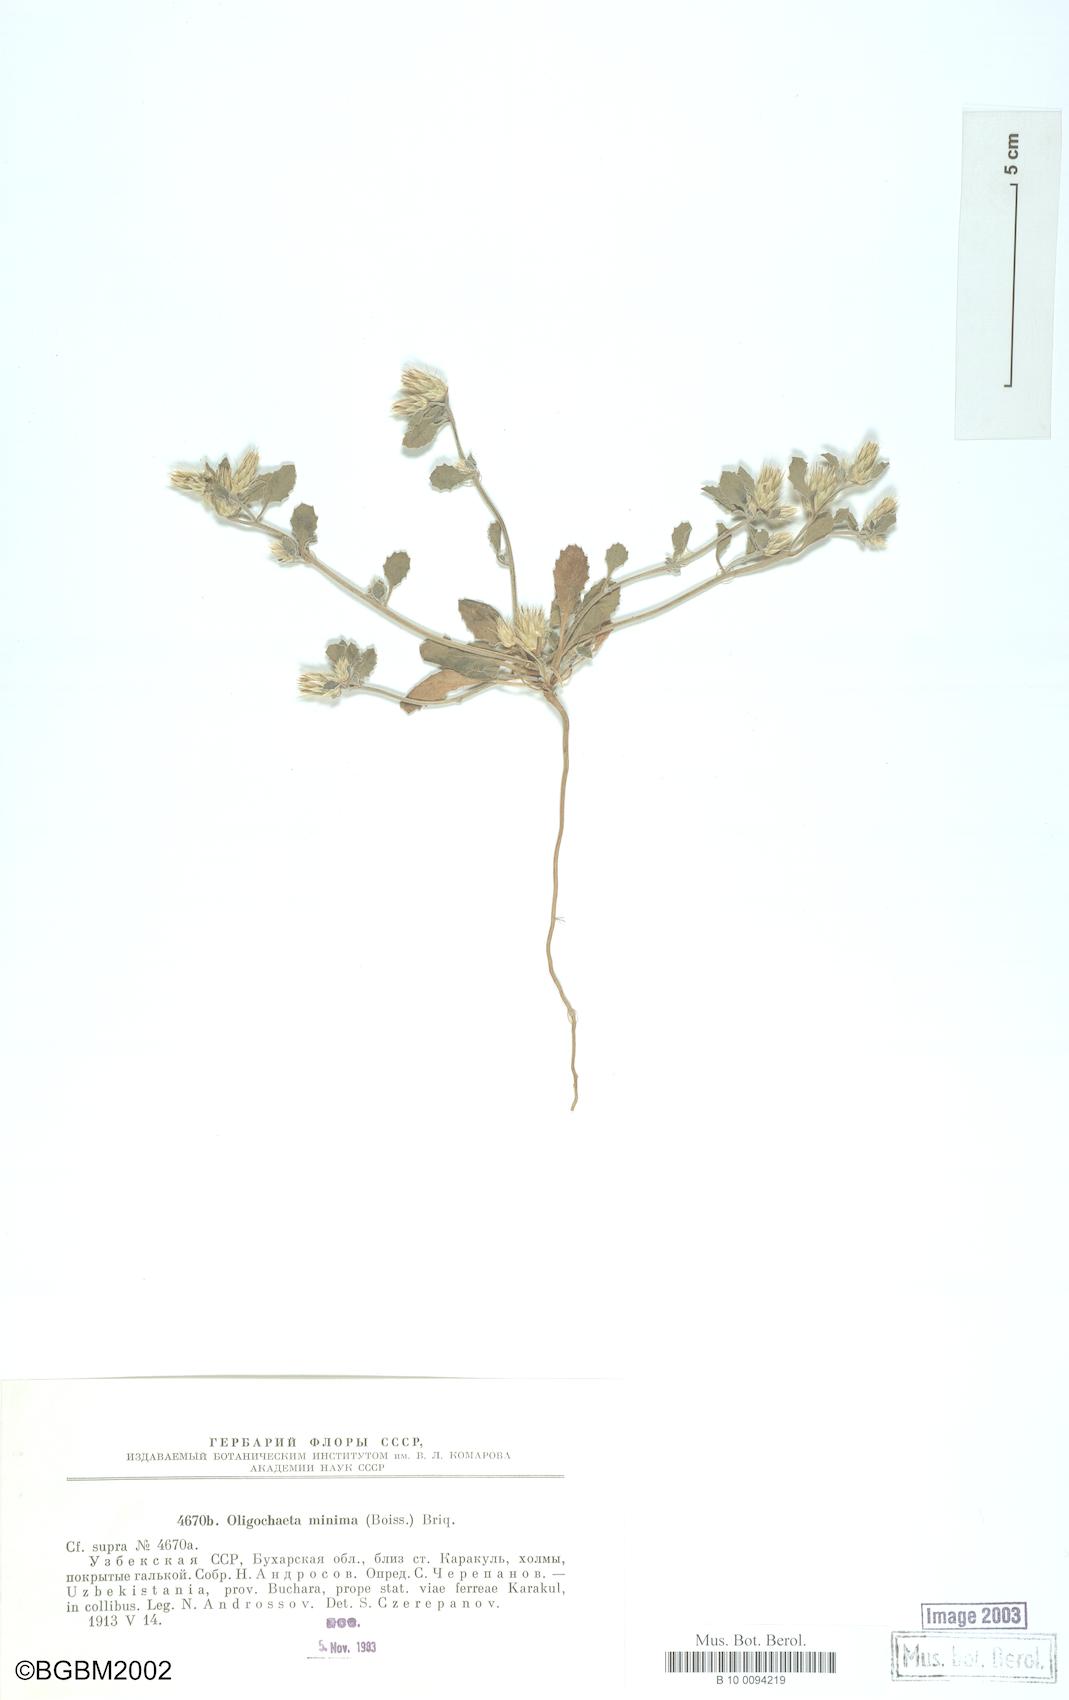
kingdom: Plantae
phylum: Tracheophyta
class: Magnoliopsida
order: Asterales
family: Asteraceae
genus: Oligochaeta
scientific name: Oligochaeta minima
